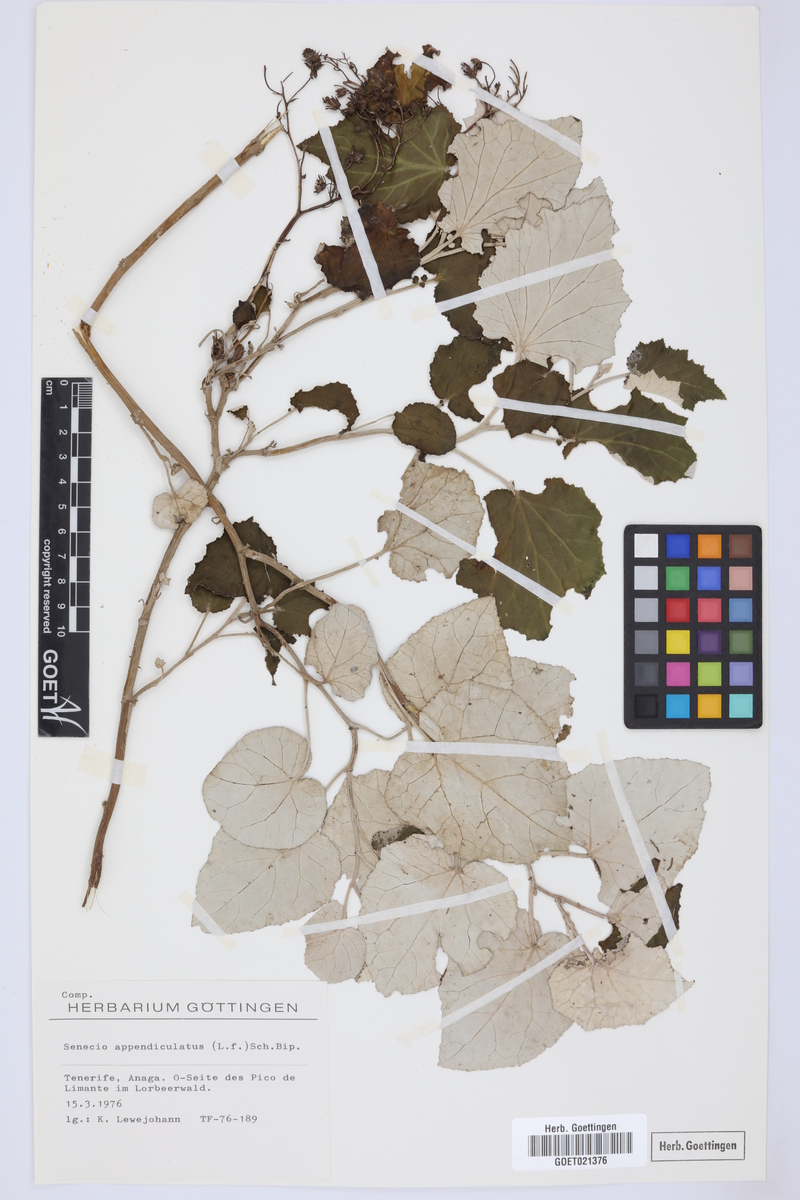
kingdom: Plantae
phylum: Tracheophyta
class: Magnoliopsida
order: Asterales
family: Asteraceae
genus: Senecio
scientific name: Senecio appendiculatus
